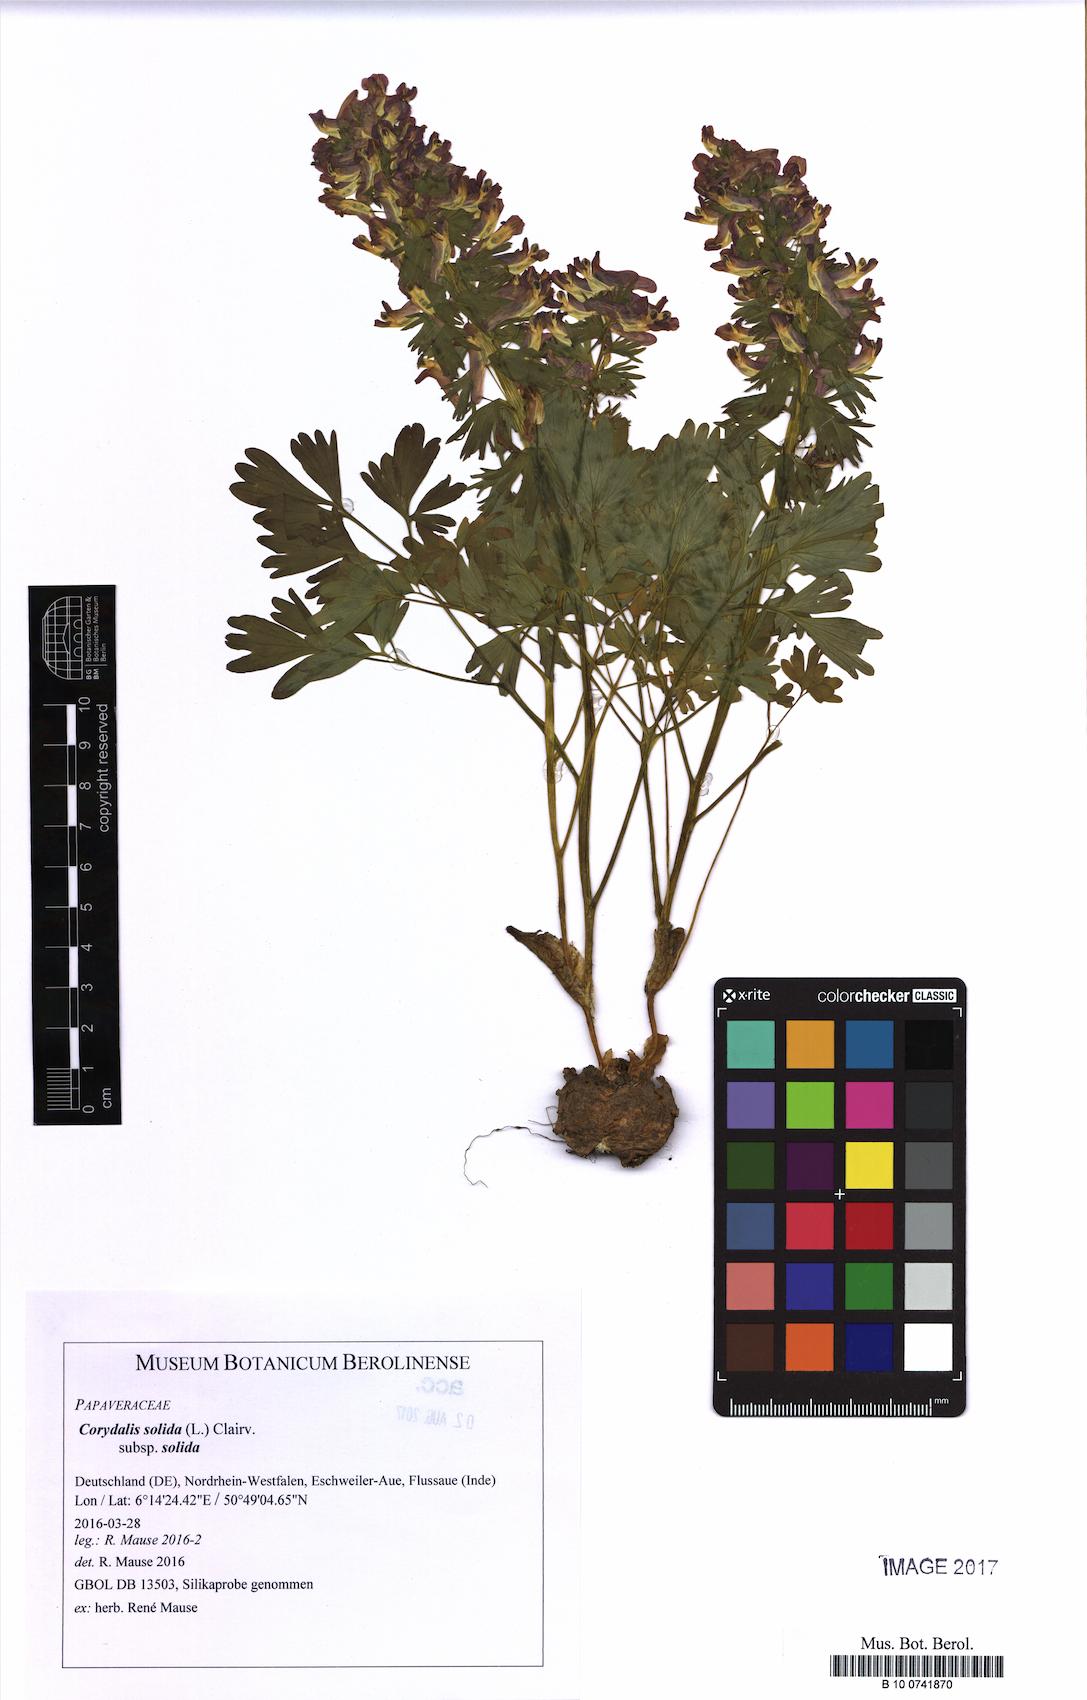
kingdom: Plantae
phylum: Tracheophyta
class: Magnoliopsida
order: Ranunculales
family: Papaveraceae
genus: Corydalis
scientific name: Corydalis solida
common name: Bird-in-a-bush
